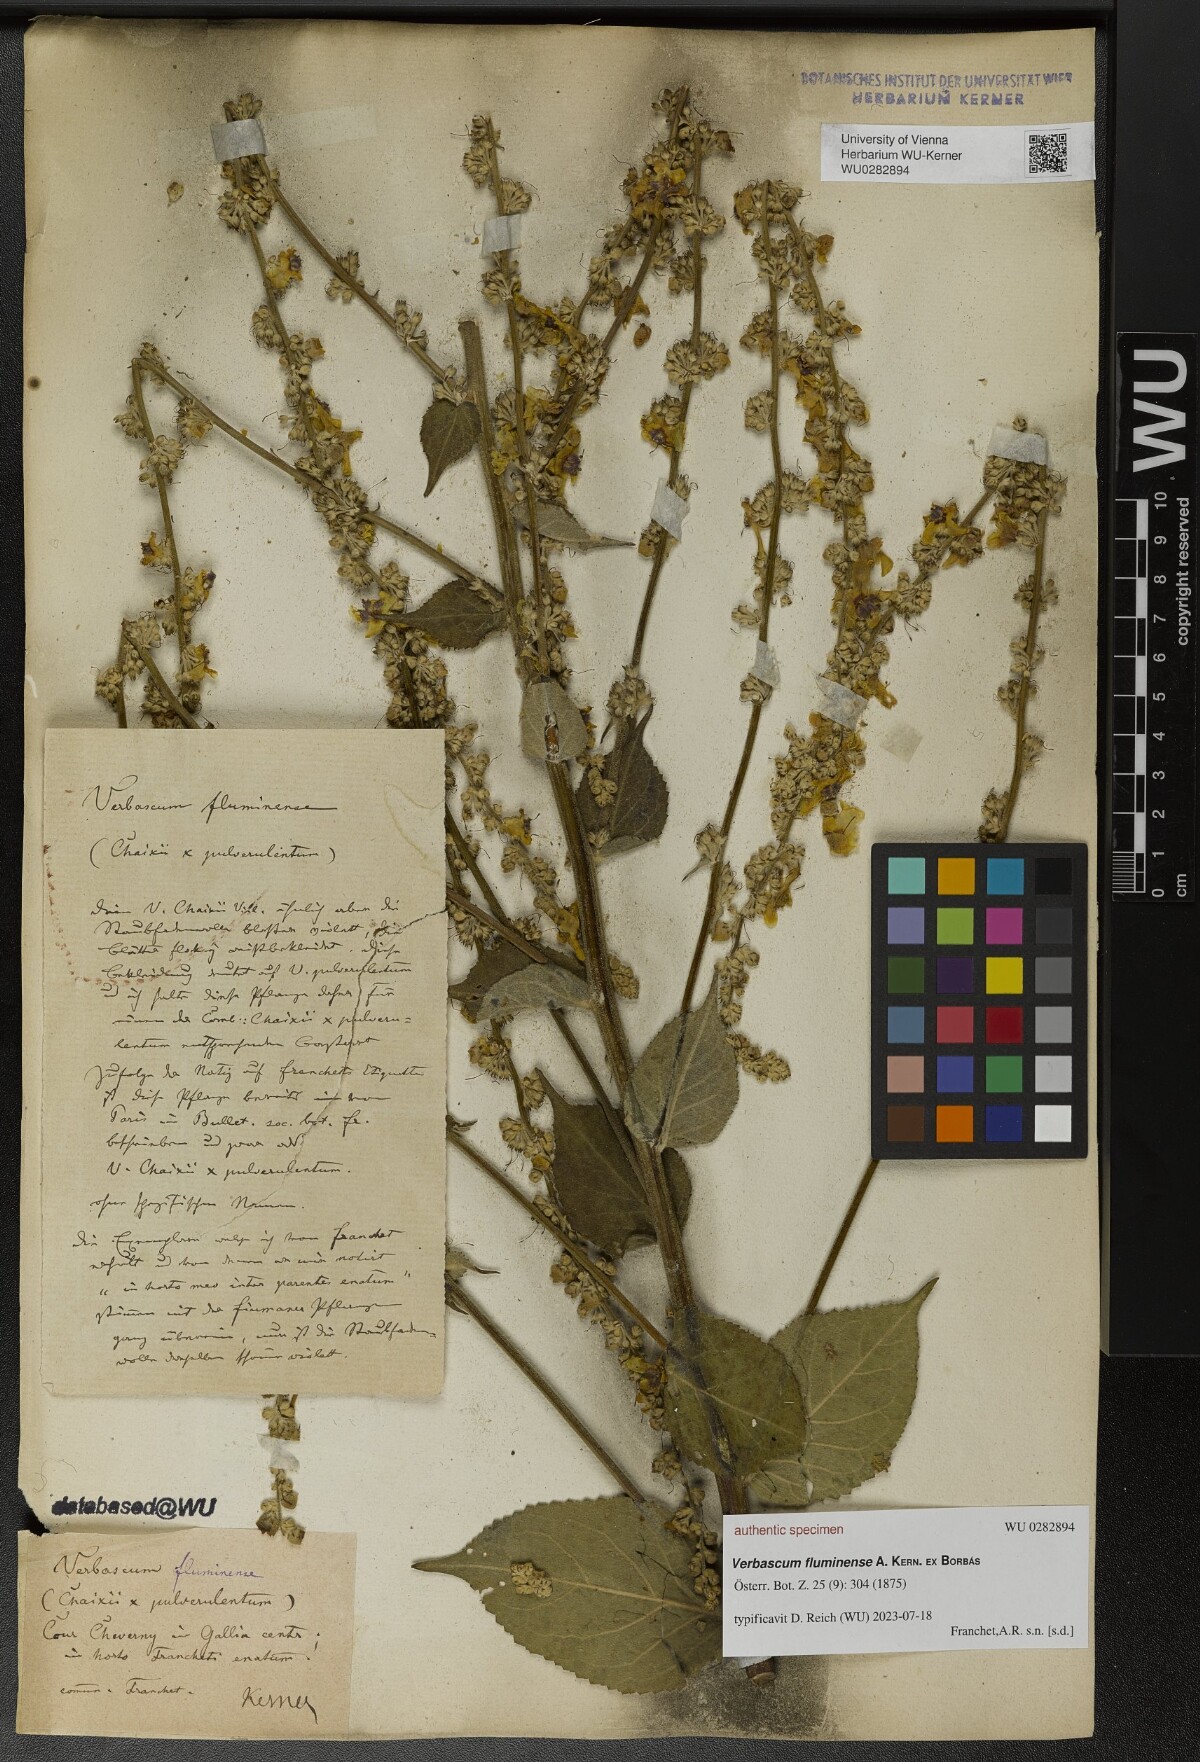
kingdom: Plantae
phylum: Tracheophyta
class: Magnoliopsida
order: Lamiales
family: Scrophulariaceae
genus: Verbascum
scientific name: Verbascum fluminense
